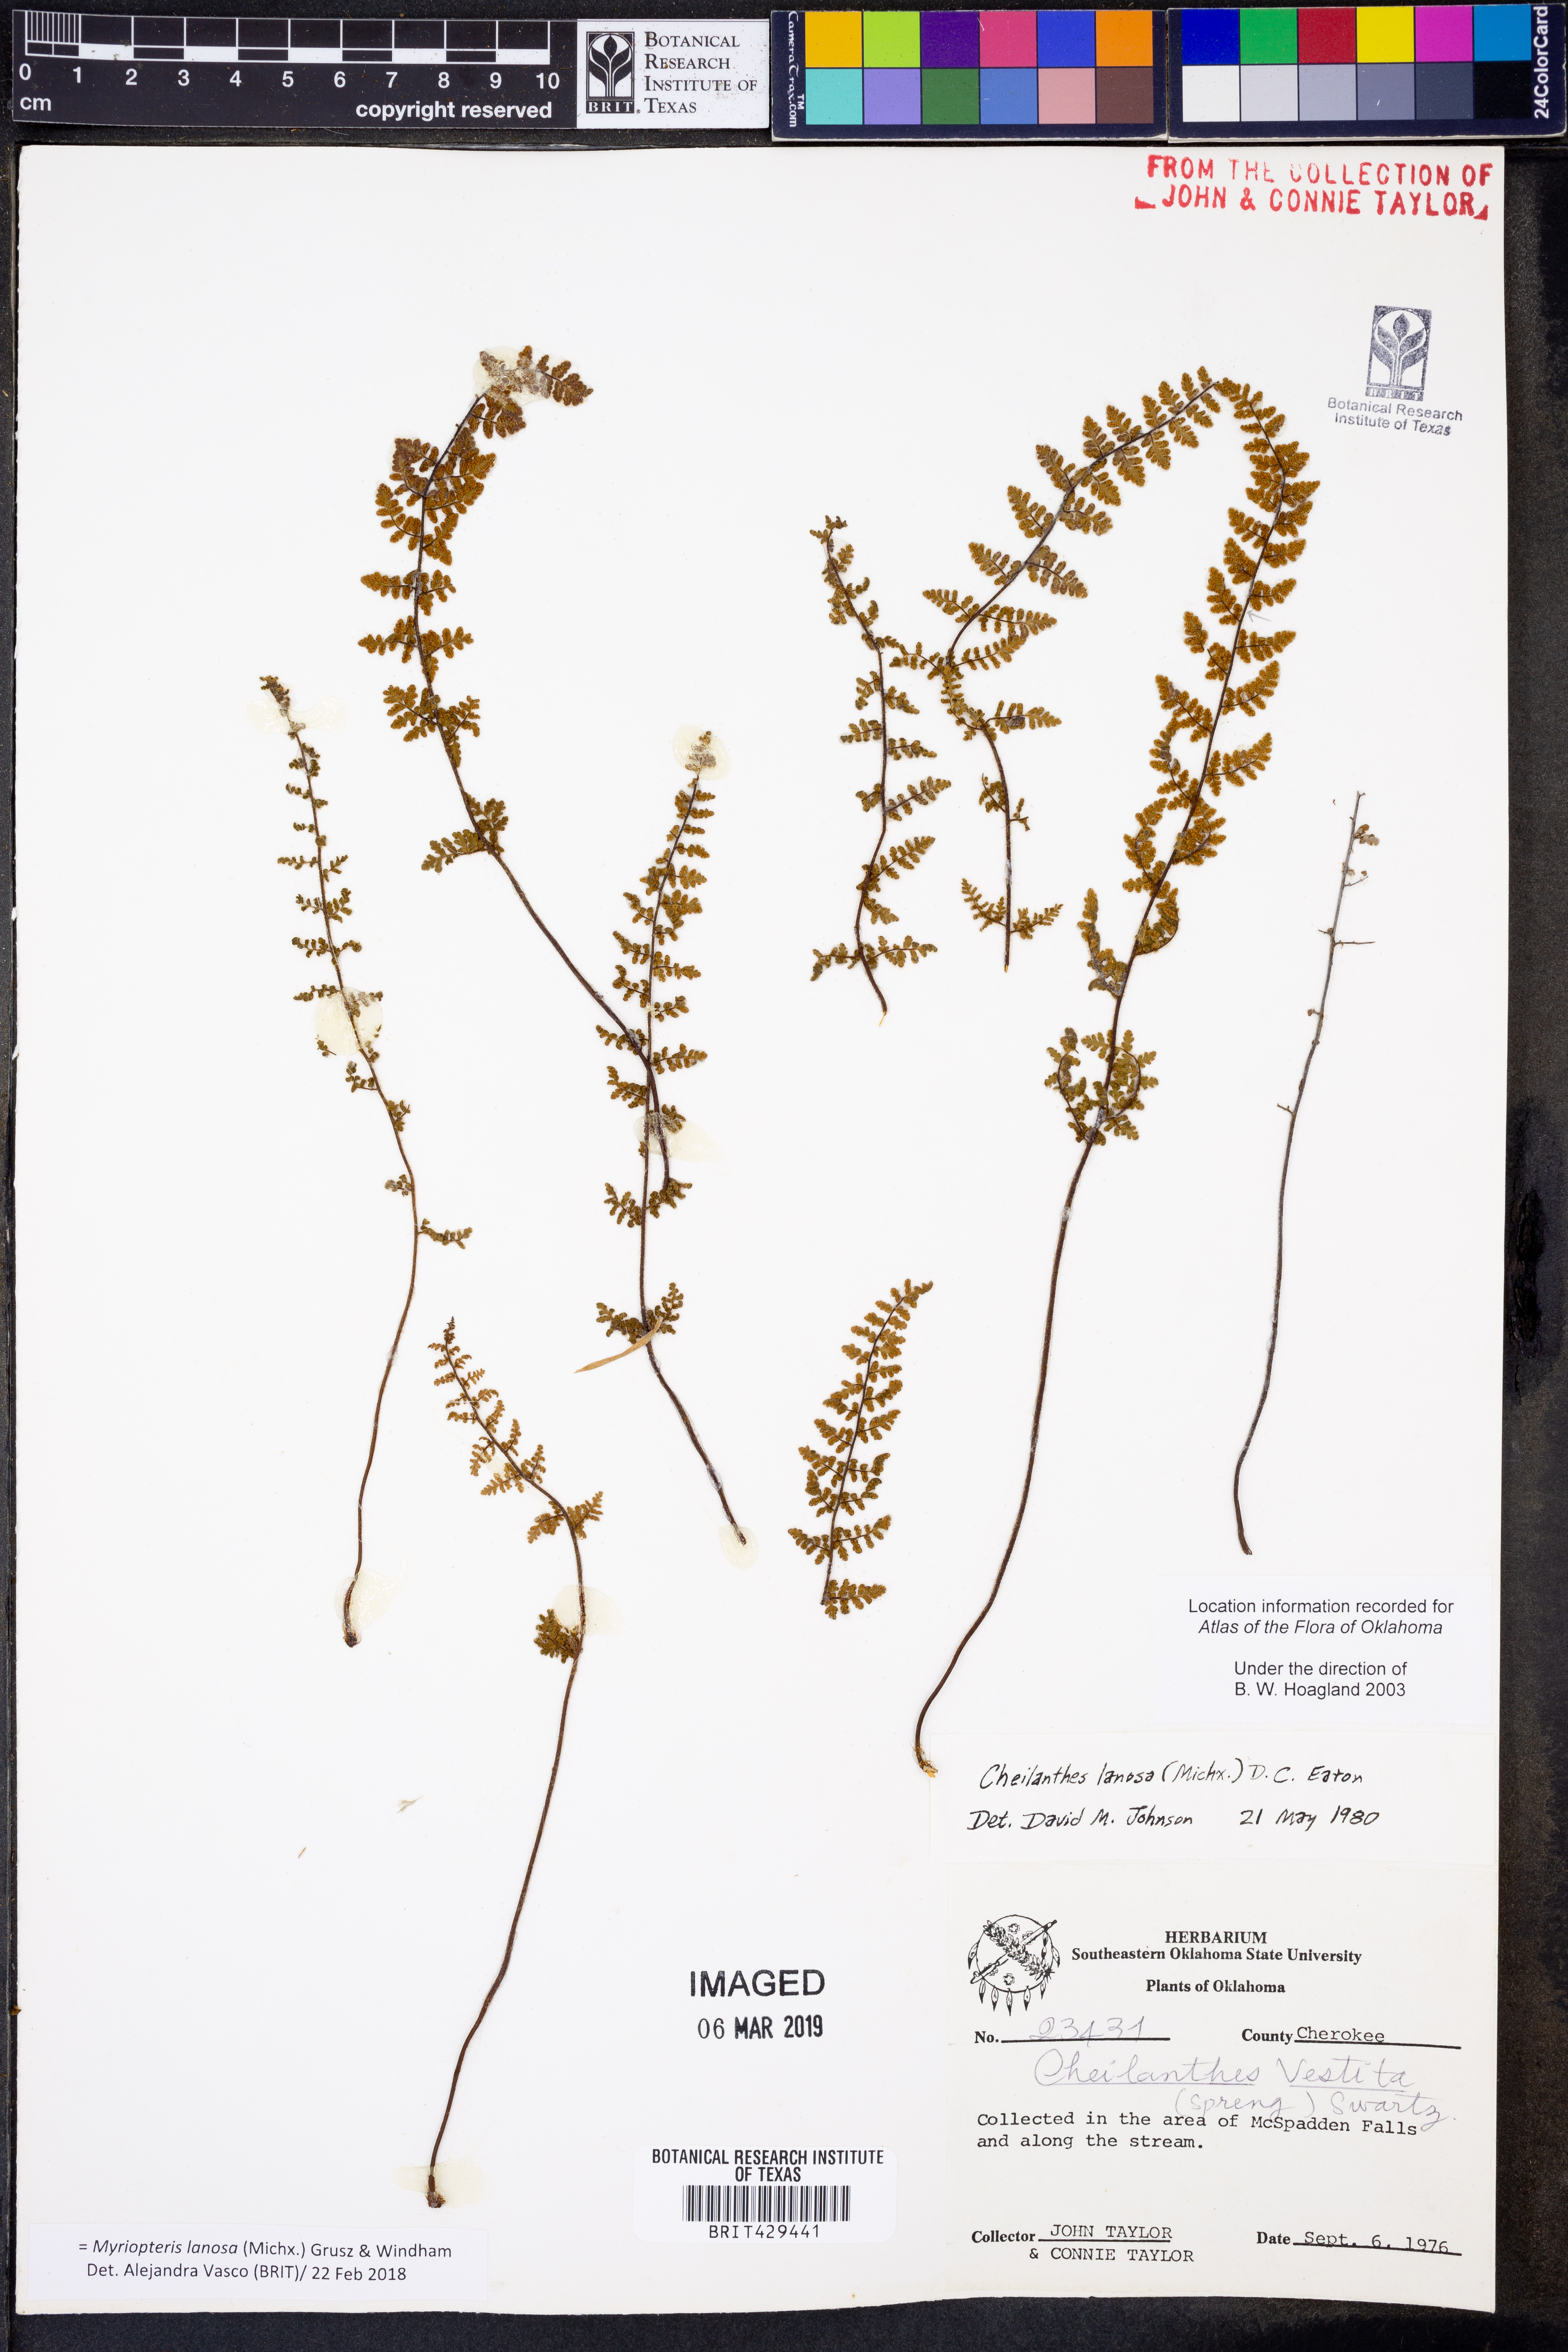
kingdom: Plantae
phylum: Tracheophyta
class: Polypodiopsida
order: Polypodiales
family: Pteridaceae
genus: Myriopteris
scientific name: Myriopteris lanosa
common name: Hairy lip fern
